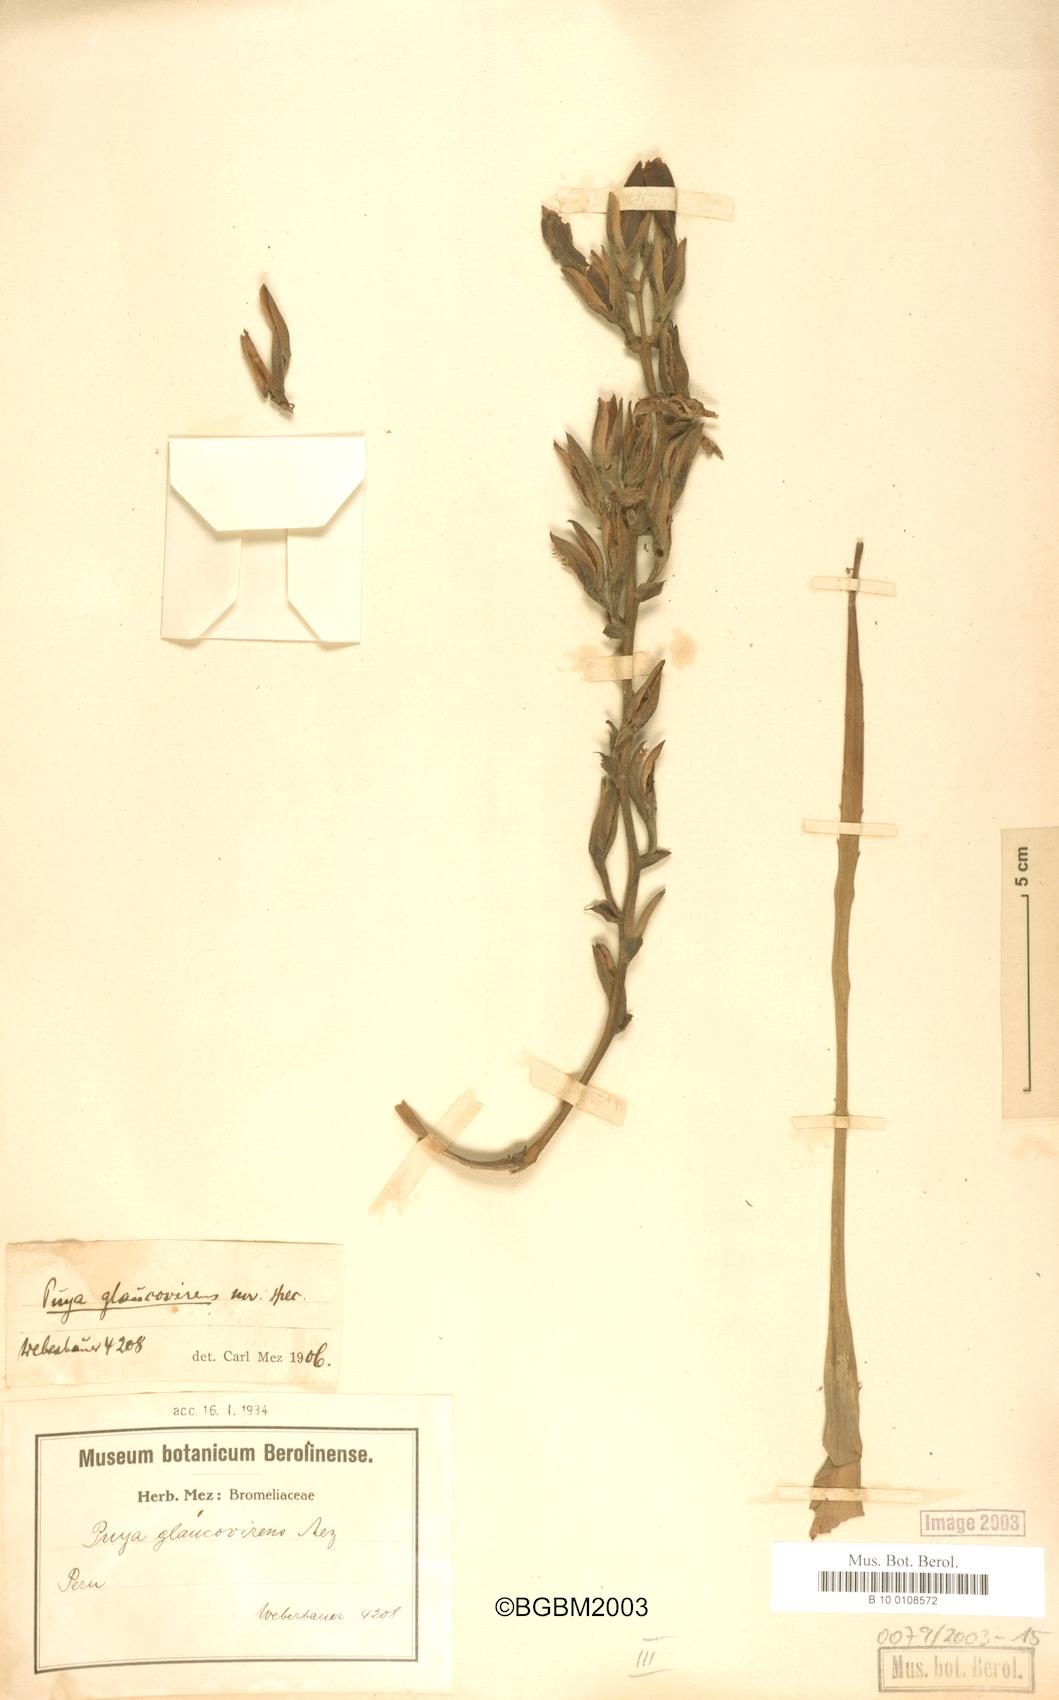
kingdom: Plantae
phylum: Tracheophyta
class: Liliopsida
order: Poales
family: Bromeliaceae
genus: Puya
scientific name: Puya glaucovirens
